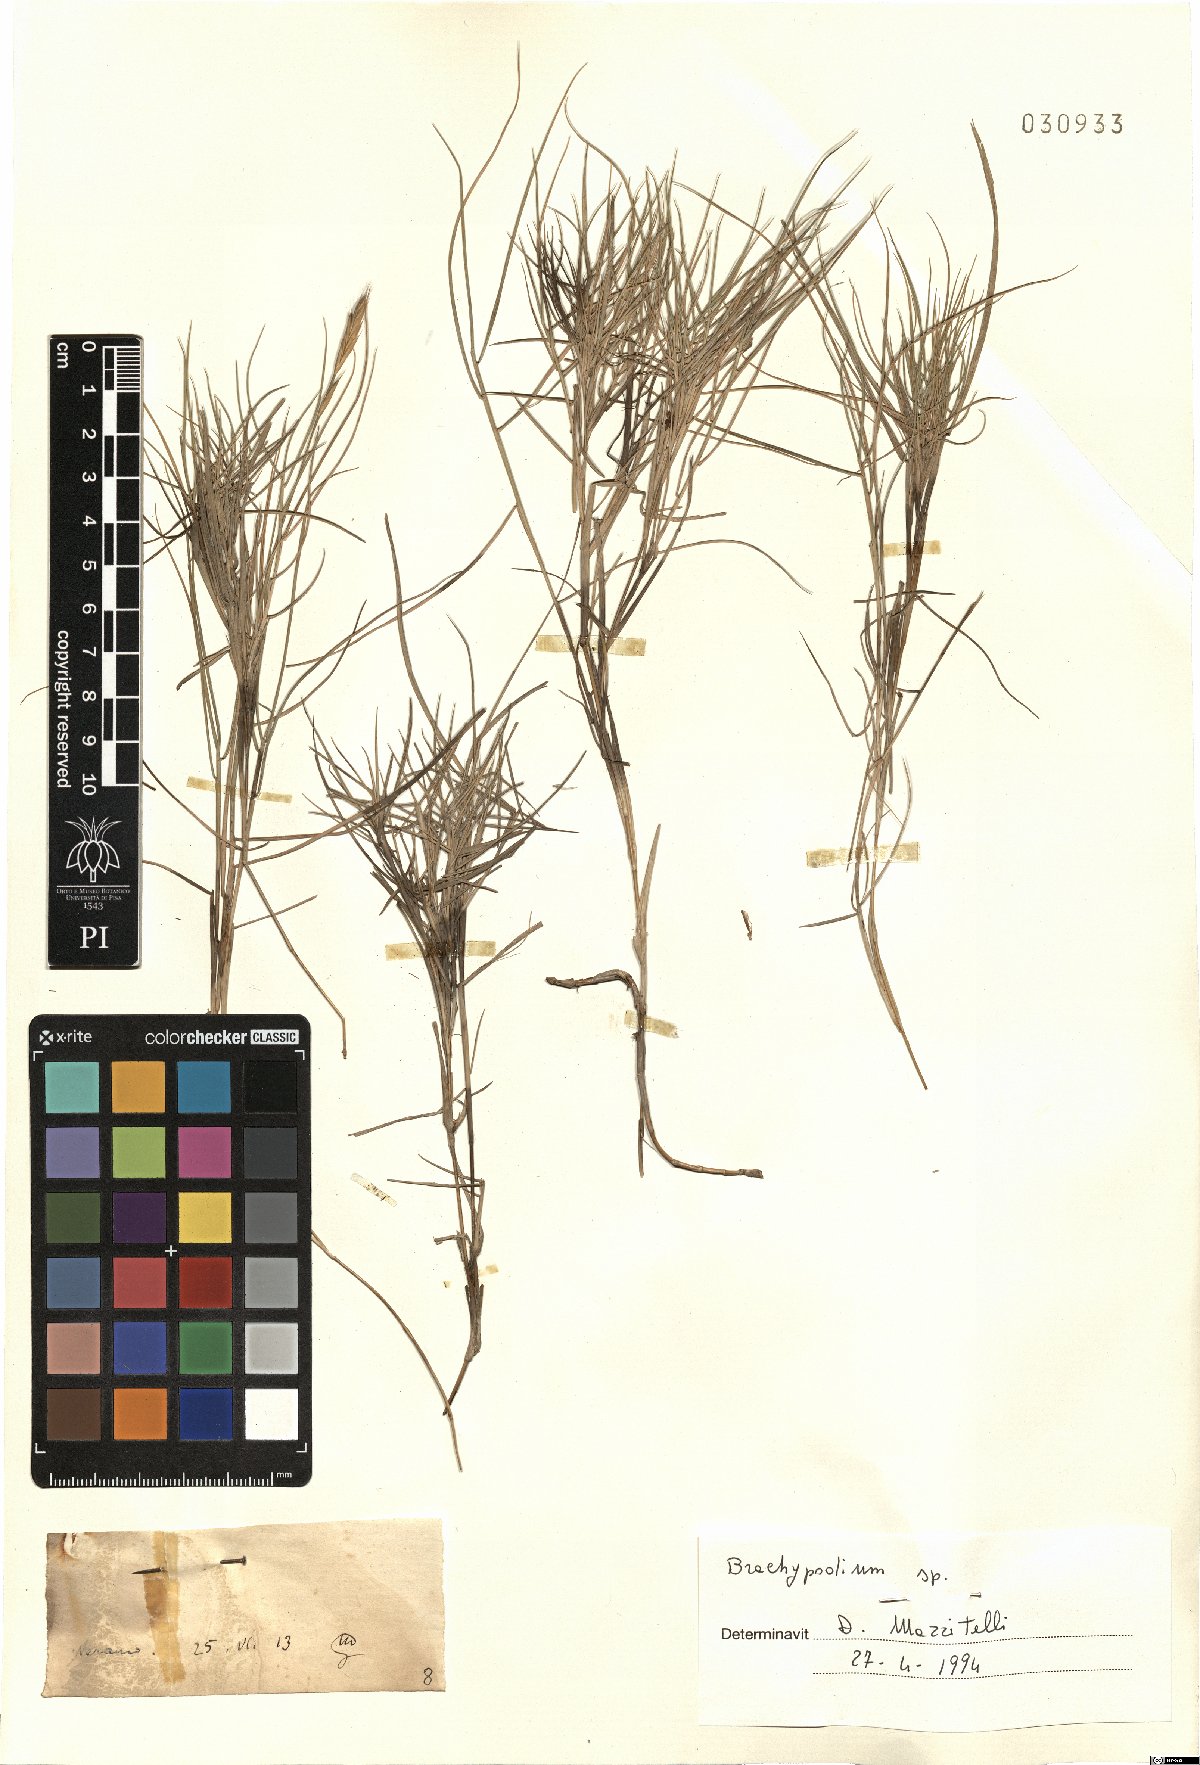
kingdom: Plantae
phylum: Tracheophyta
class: Liliopsida
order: Poales
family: Poaceae
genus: Brachypodium
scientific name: Brachypodium
